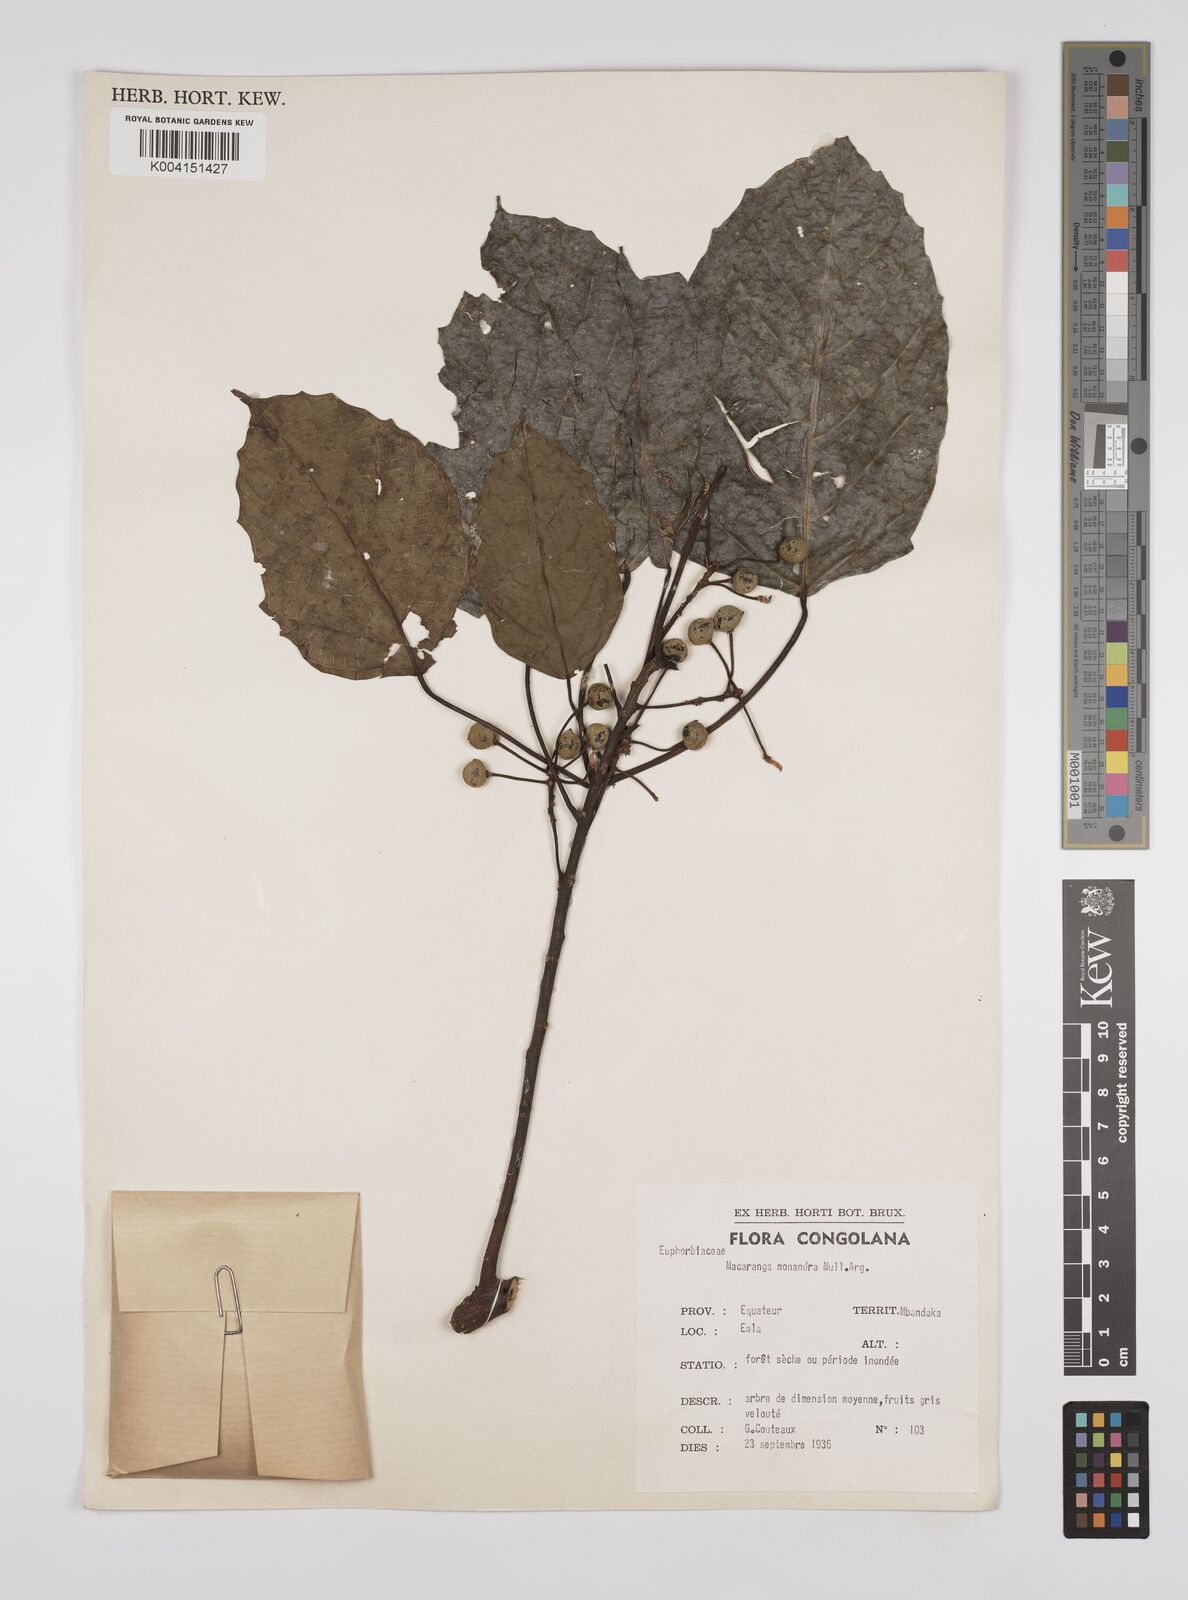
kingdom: Plantae
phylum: Tracheophyta
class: Magnoliopsida
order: Malpighiales
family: Euphorbiaceae
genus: Macaranga
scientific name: Macaranga monandra
